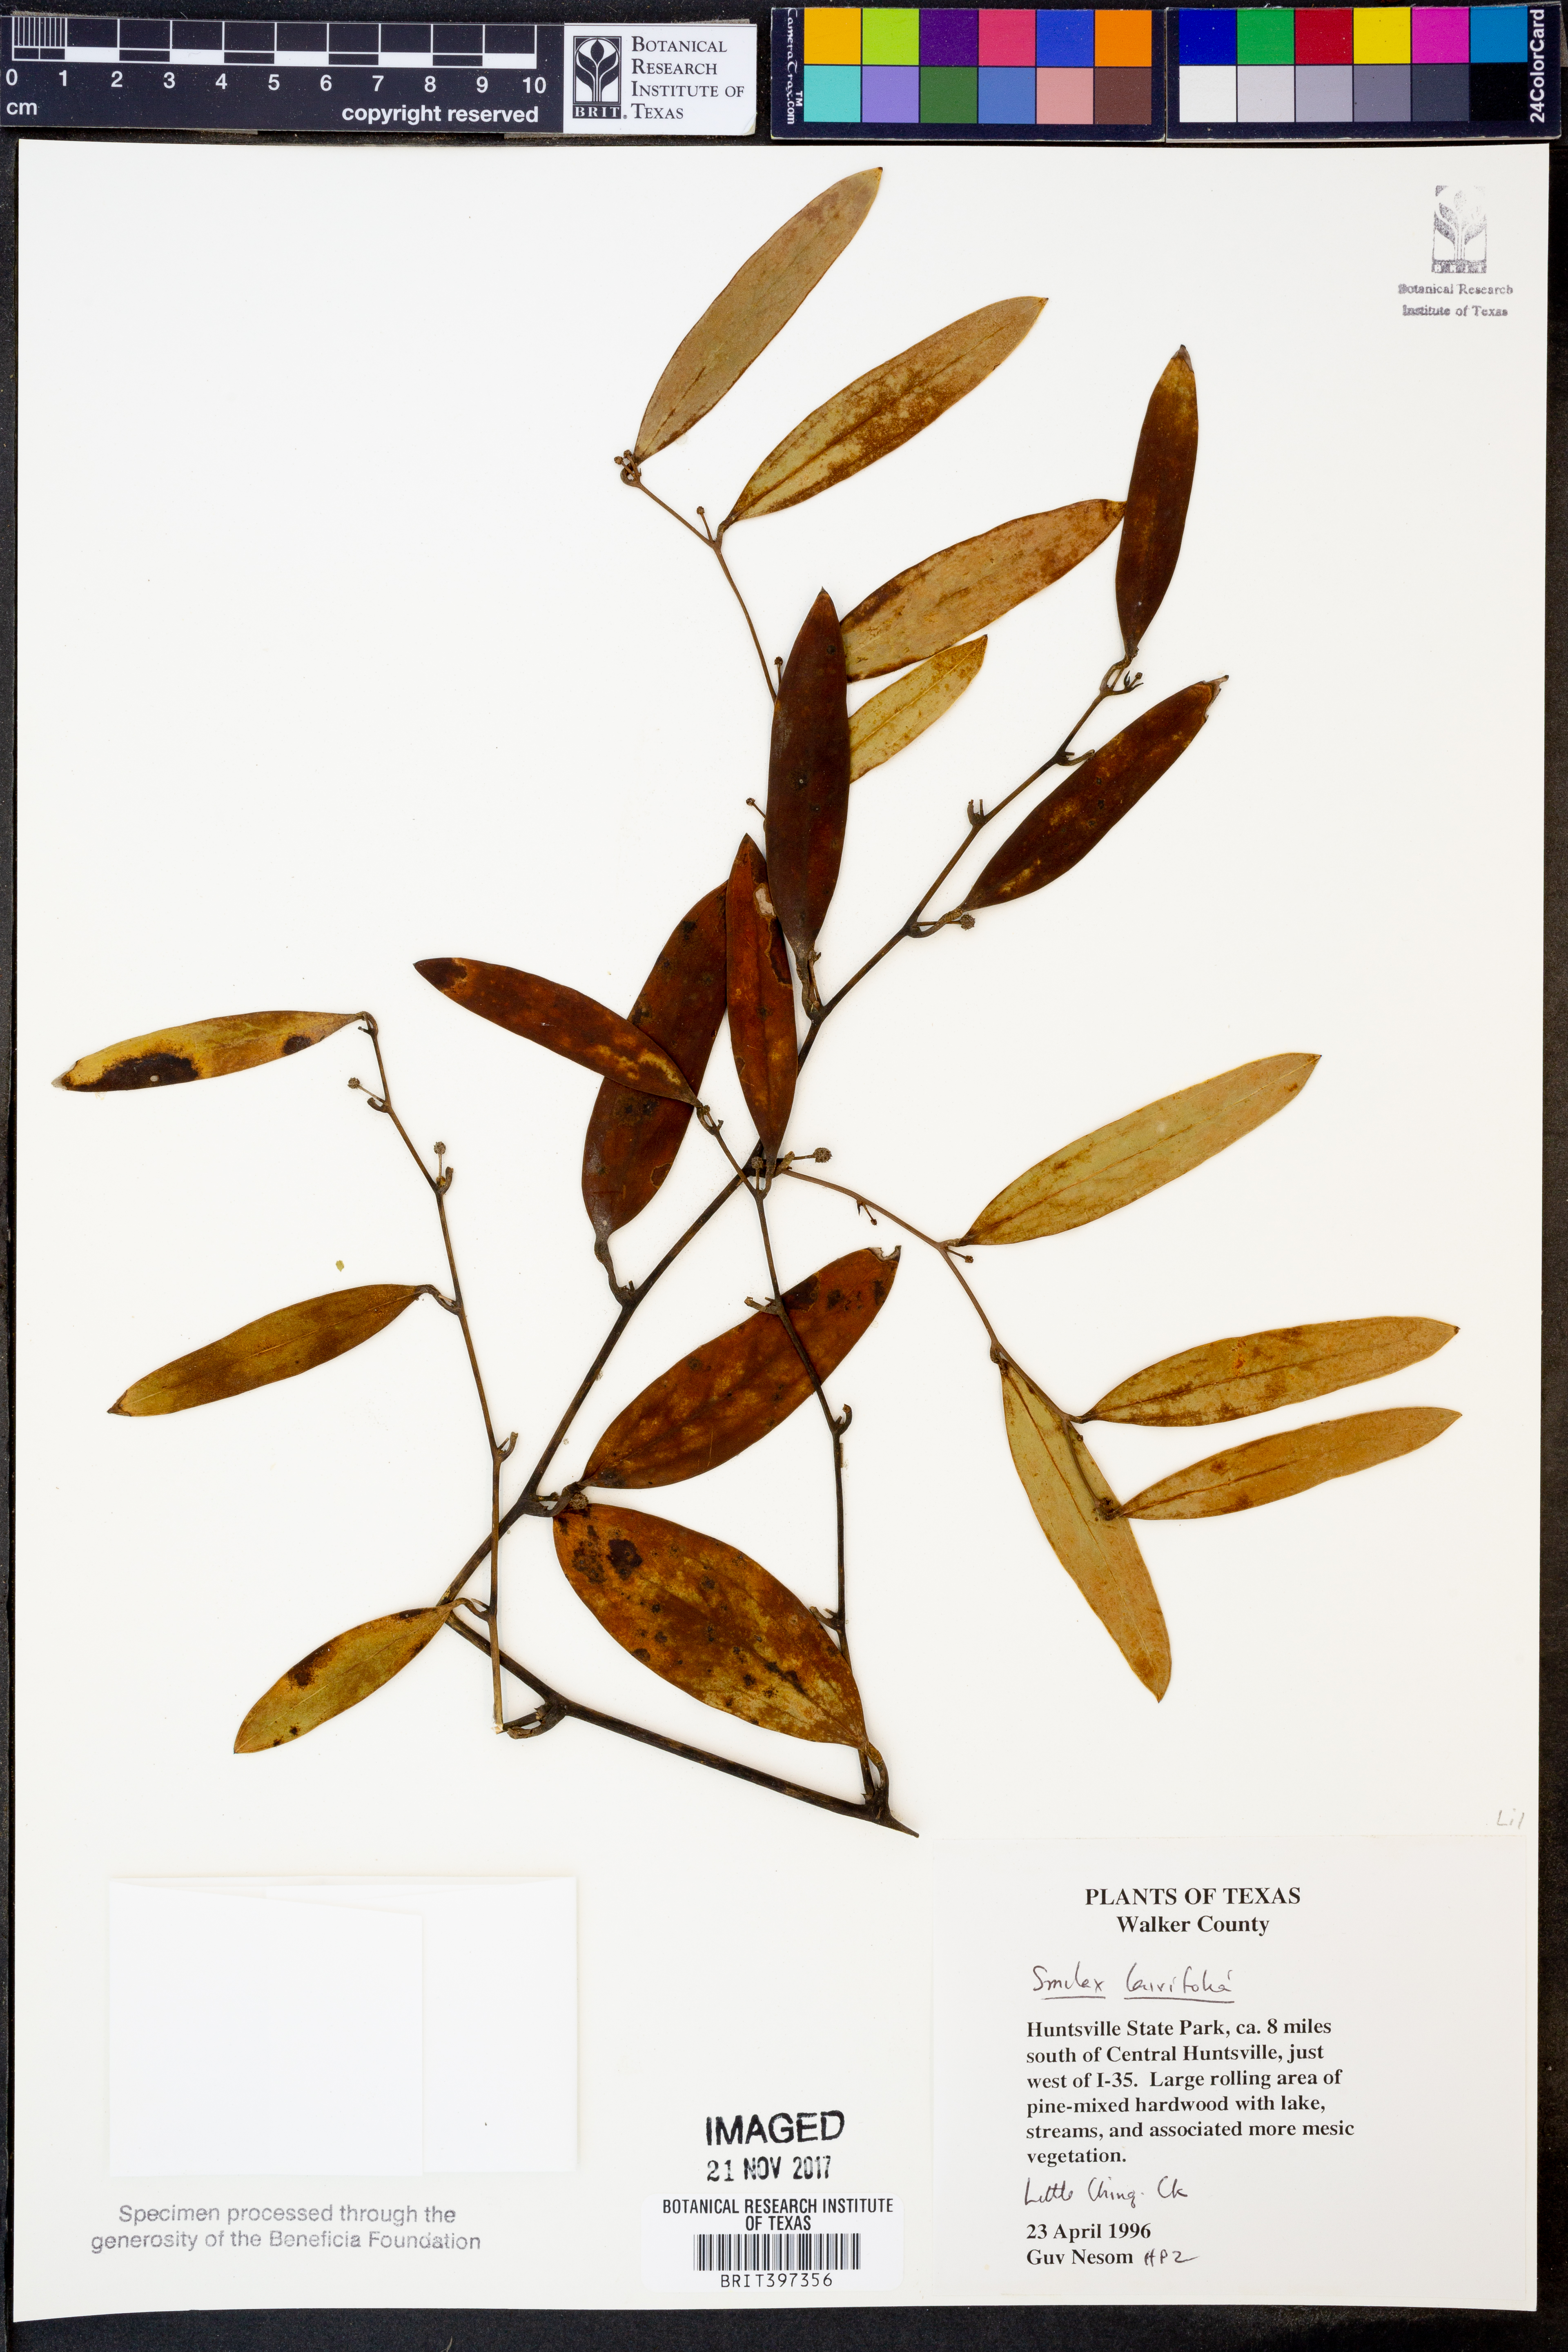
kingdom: Plantae
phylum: Tracheophyta
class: Liliopsida
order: Liliales
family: Smilacaceae
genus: Smilax
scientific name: Smilax laurifolia
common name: Bamboovine
